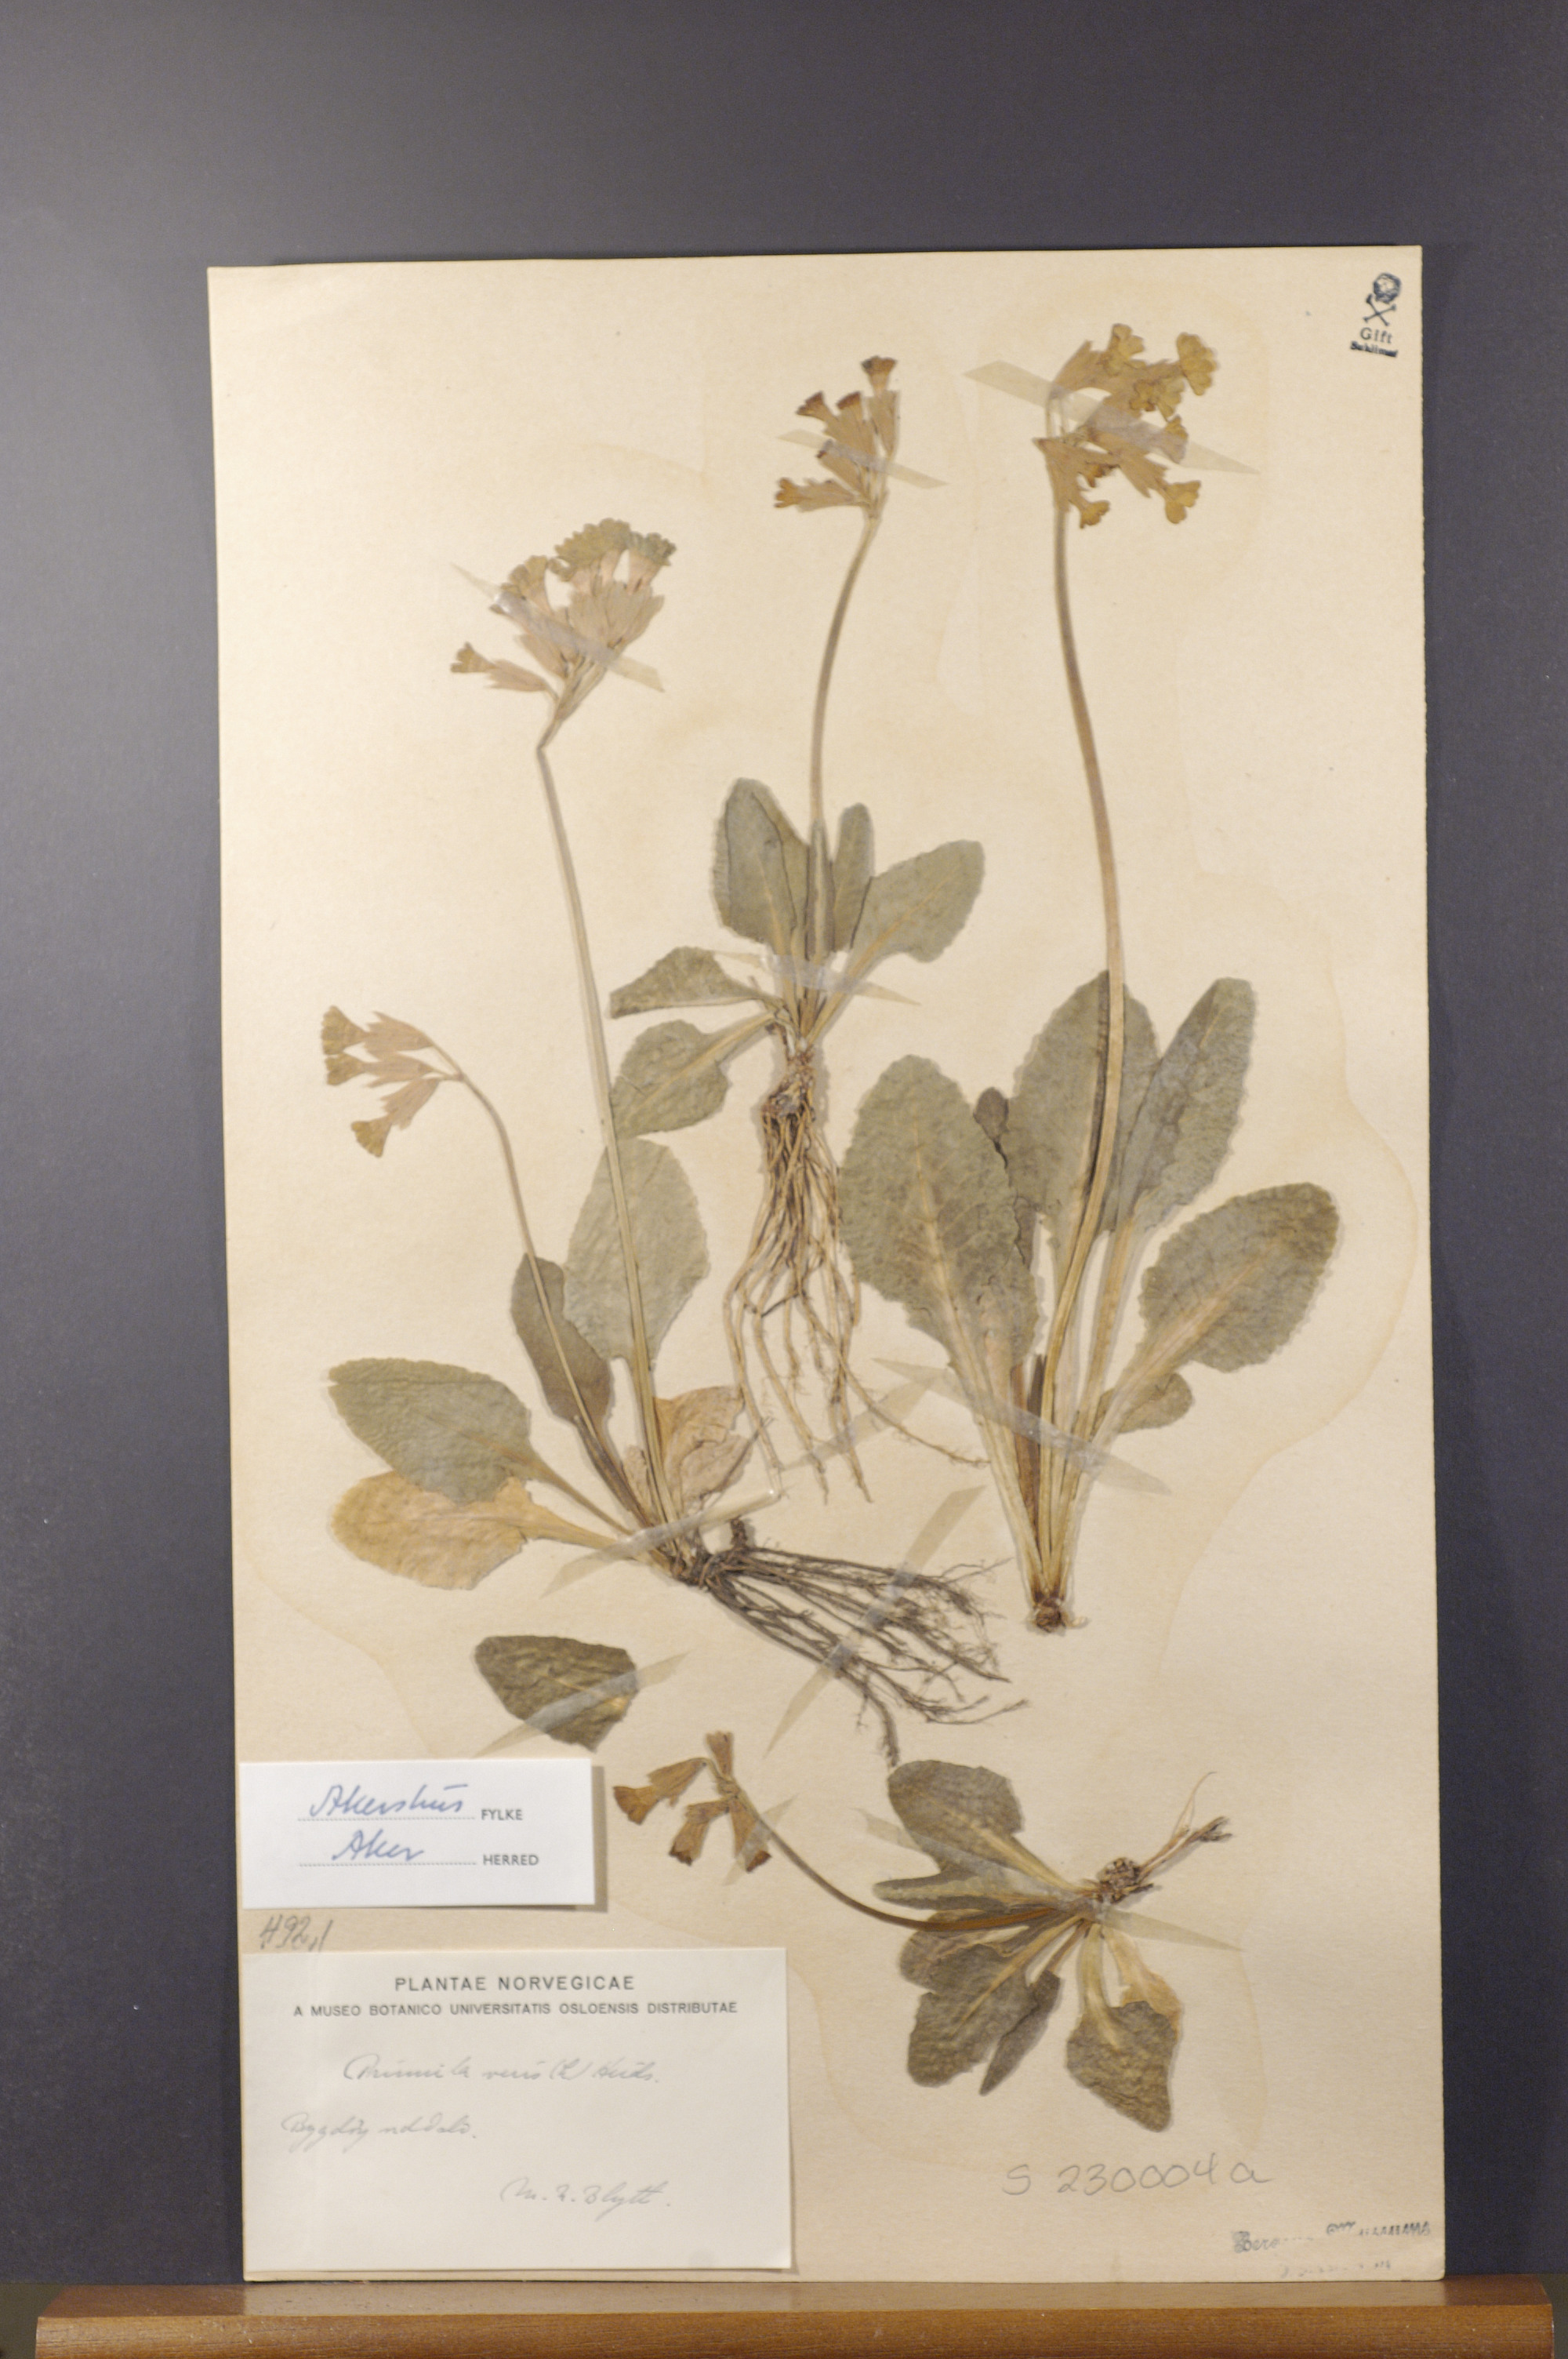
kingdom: Plantae
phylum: Tracheophyta
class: Magnoliopsida
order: Ericales
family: Primulaceae
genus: Primula
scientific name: Primula veris
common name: Cowslip
